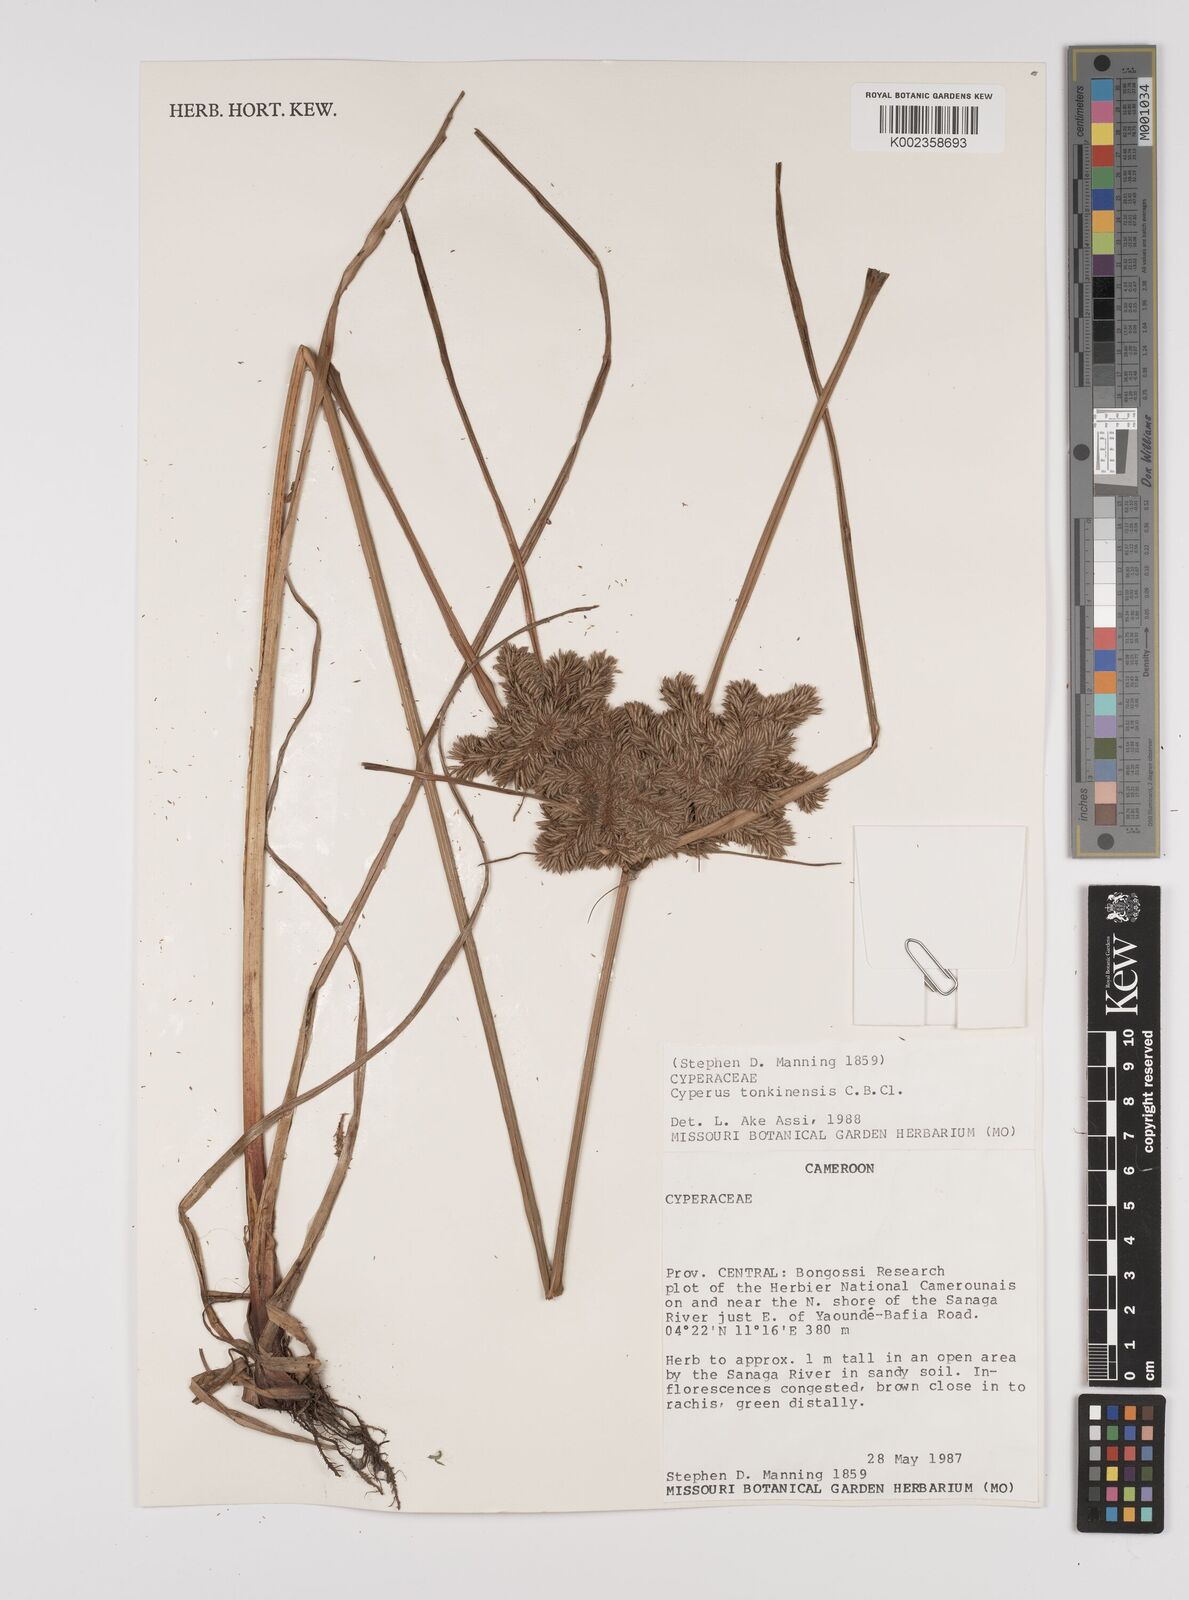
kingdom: Plantae
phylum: Tracheophyta
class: Liliopsida
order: Poales
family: Cyperaceae
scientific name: Cyperaceae
